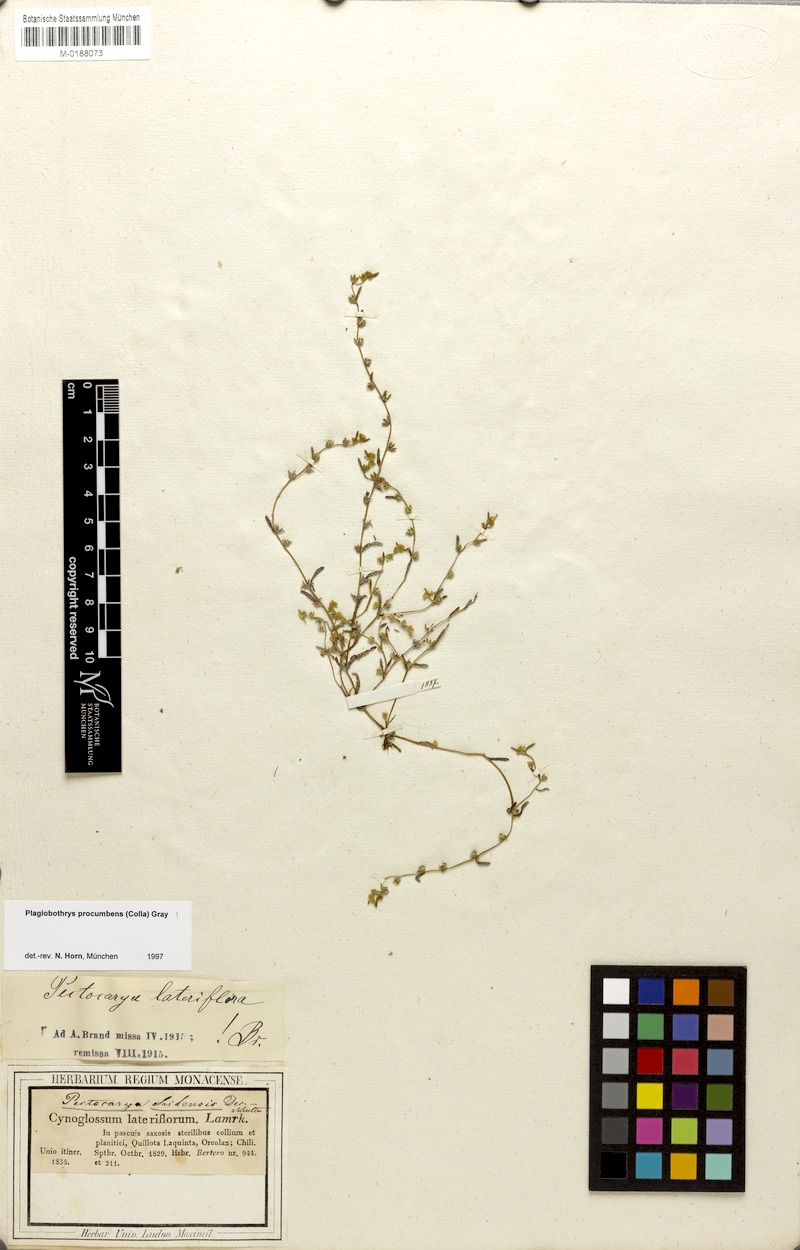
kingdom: Plantae
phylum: Tracheophyta
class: Magnoliopsida
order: Boraginales
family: Boraginaceae
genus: Plagiobothrys
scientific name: Plagiobothrys procumbens
